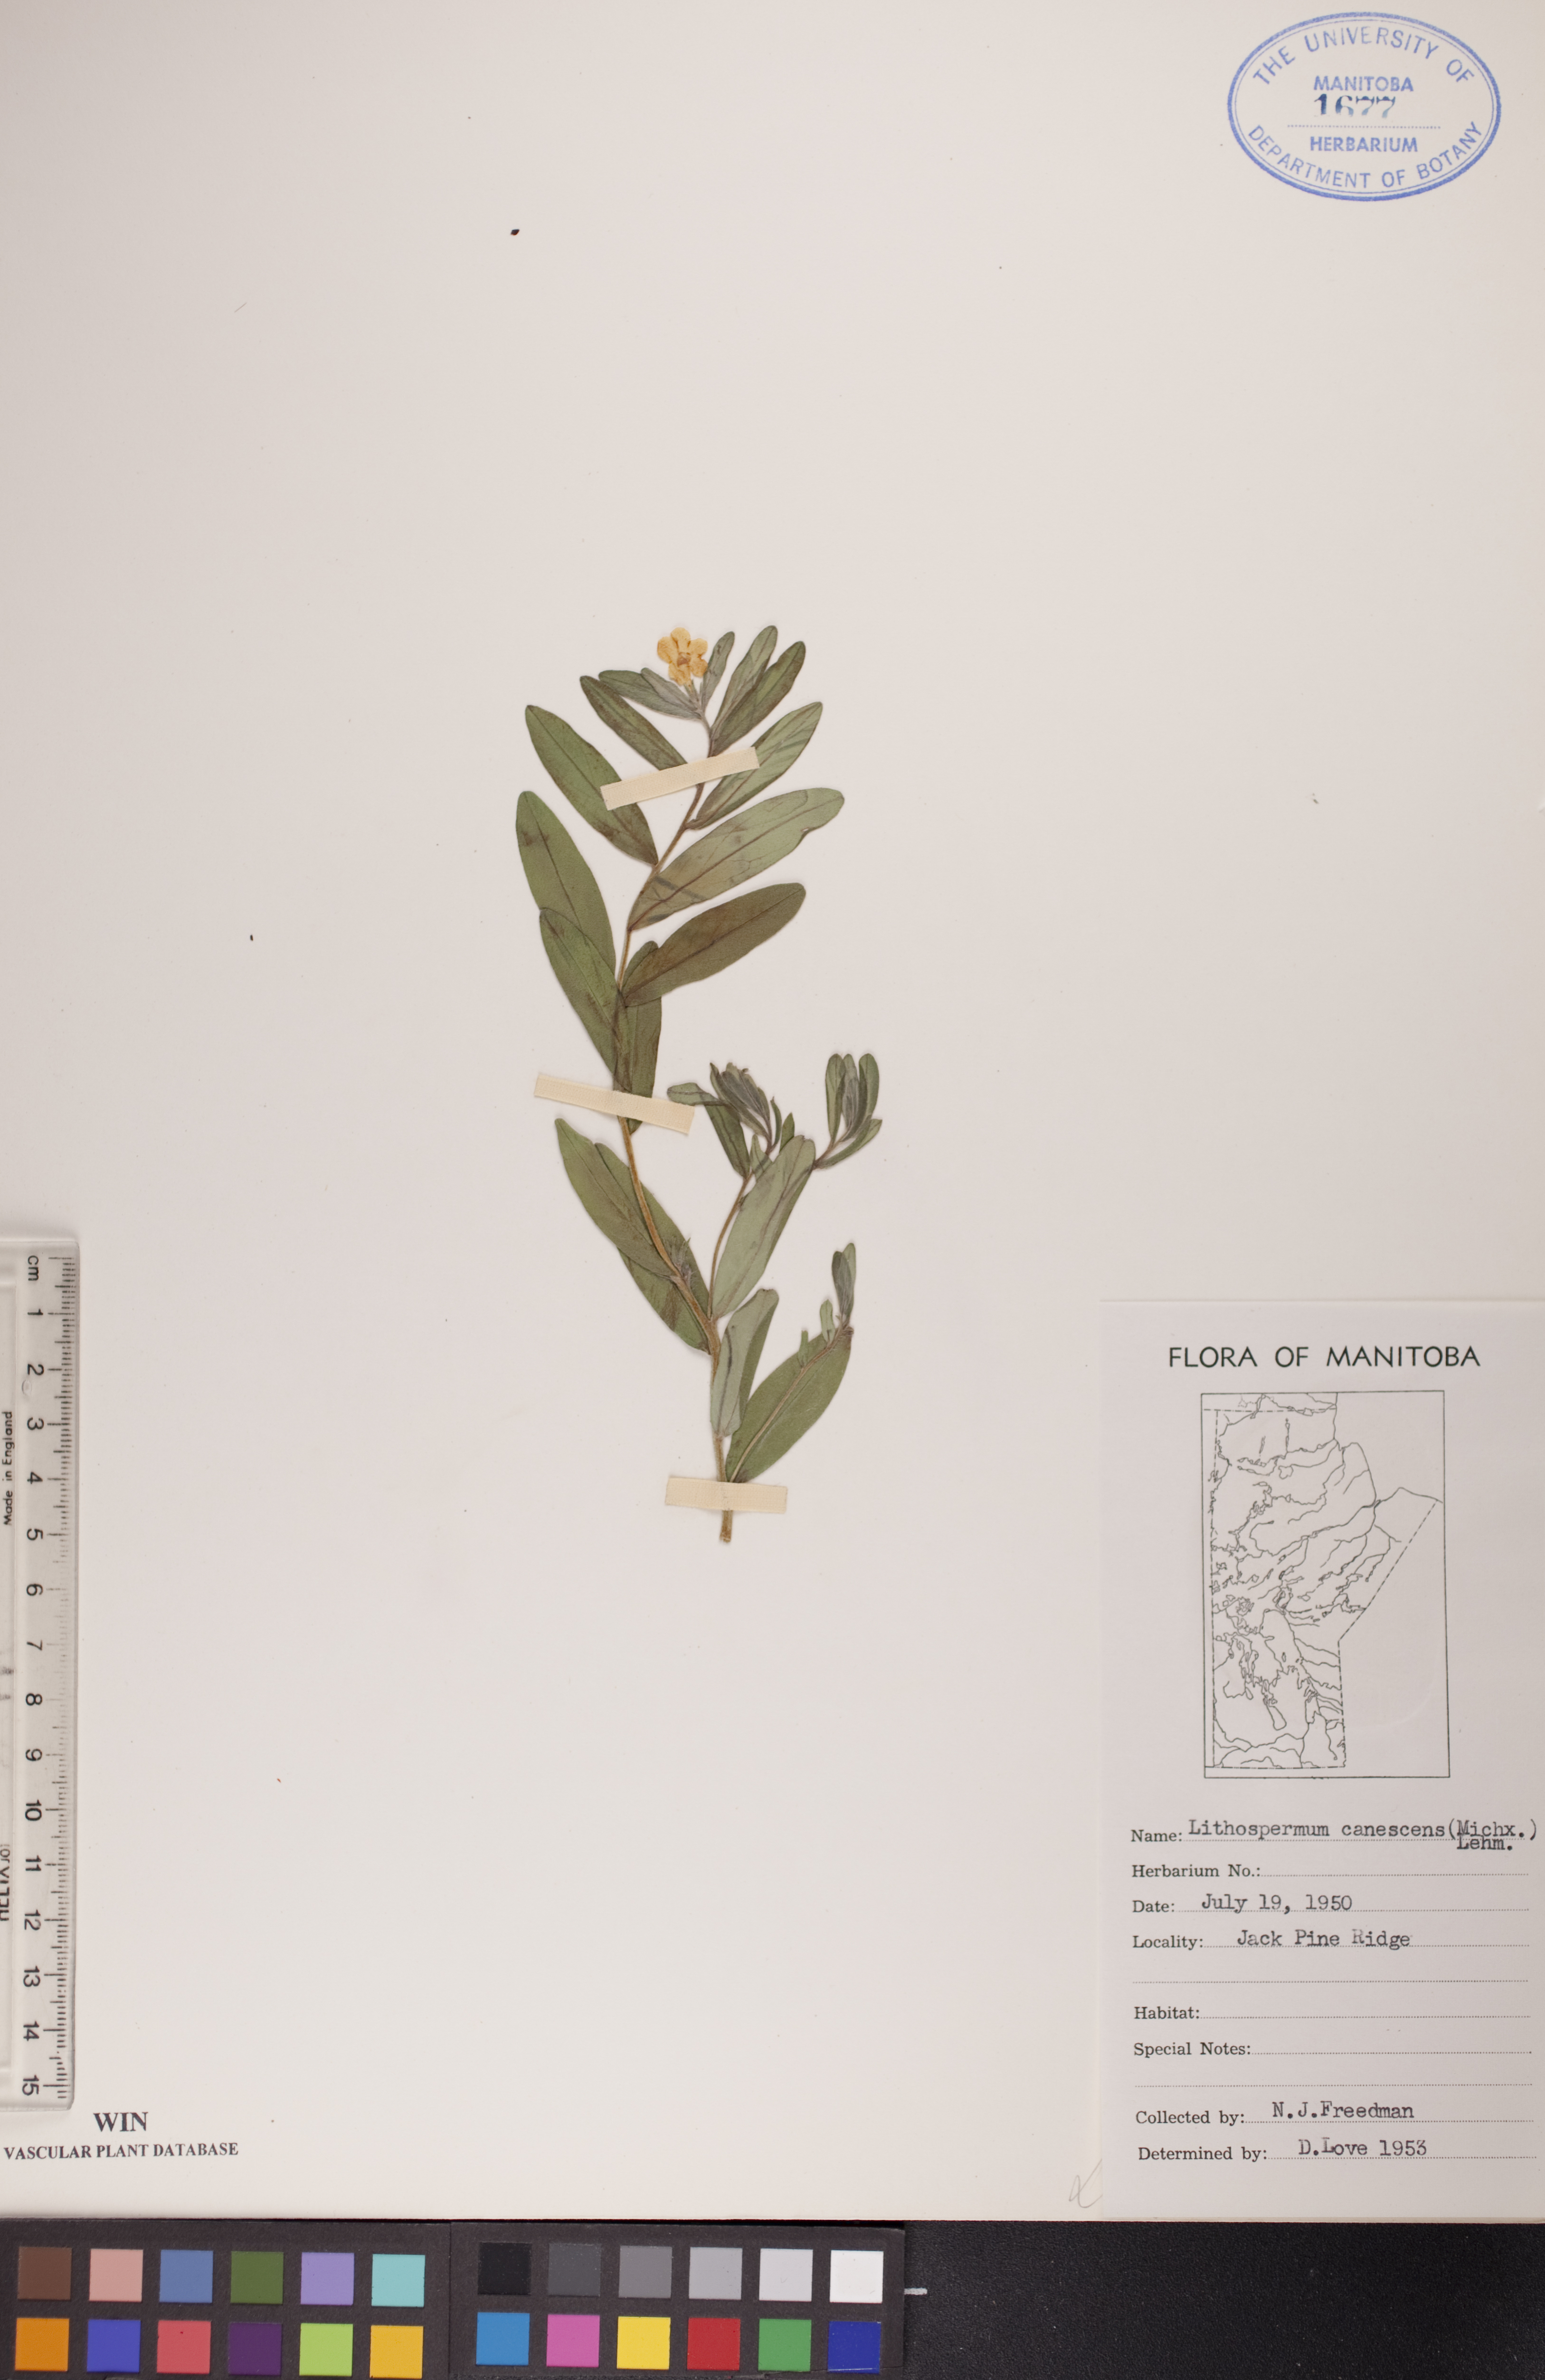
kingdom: Plantae
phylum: Tracheophyta
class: Magnoliopsida
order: Boraginales
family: Boraginaceae
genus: Lithospermum
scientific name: Lithospermum canescens
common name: Hoary puccoon
